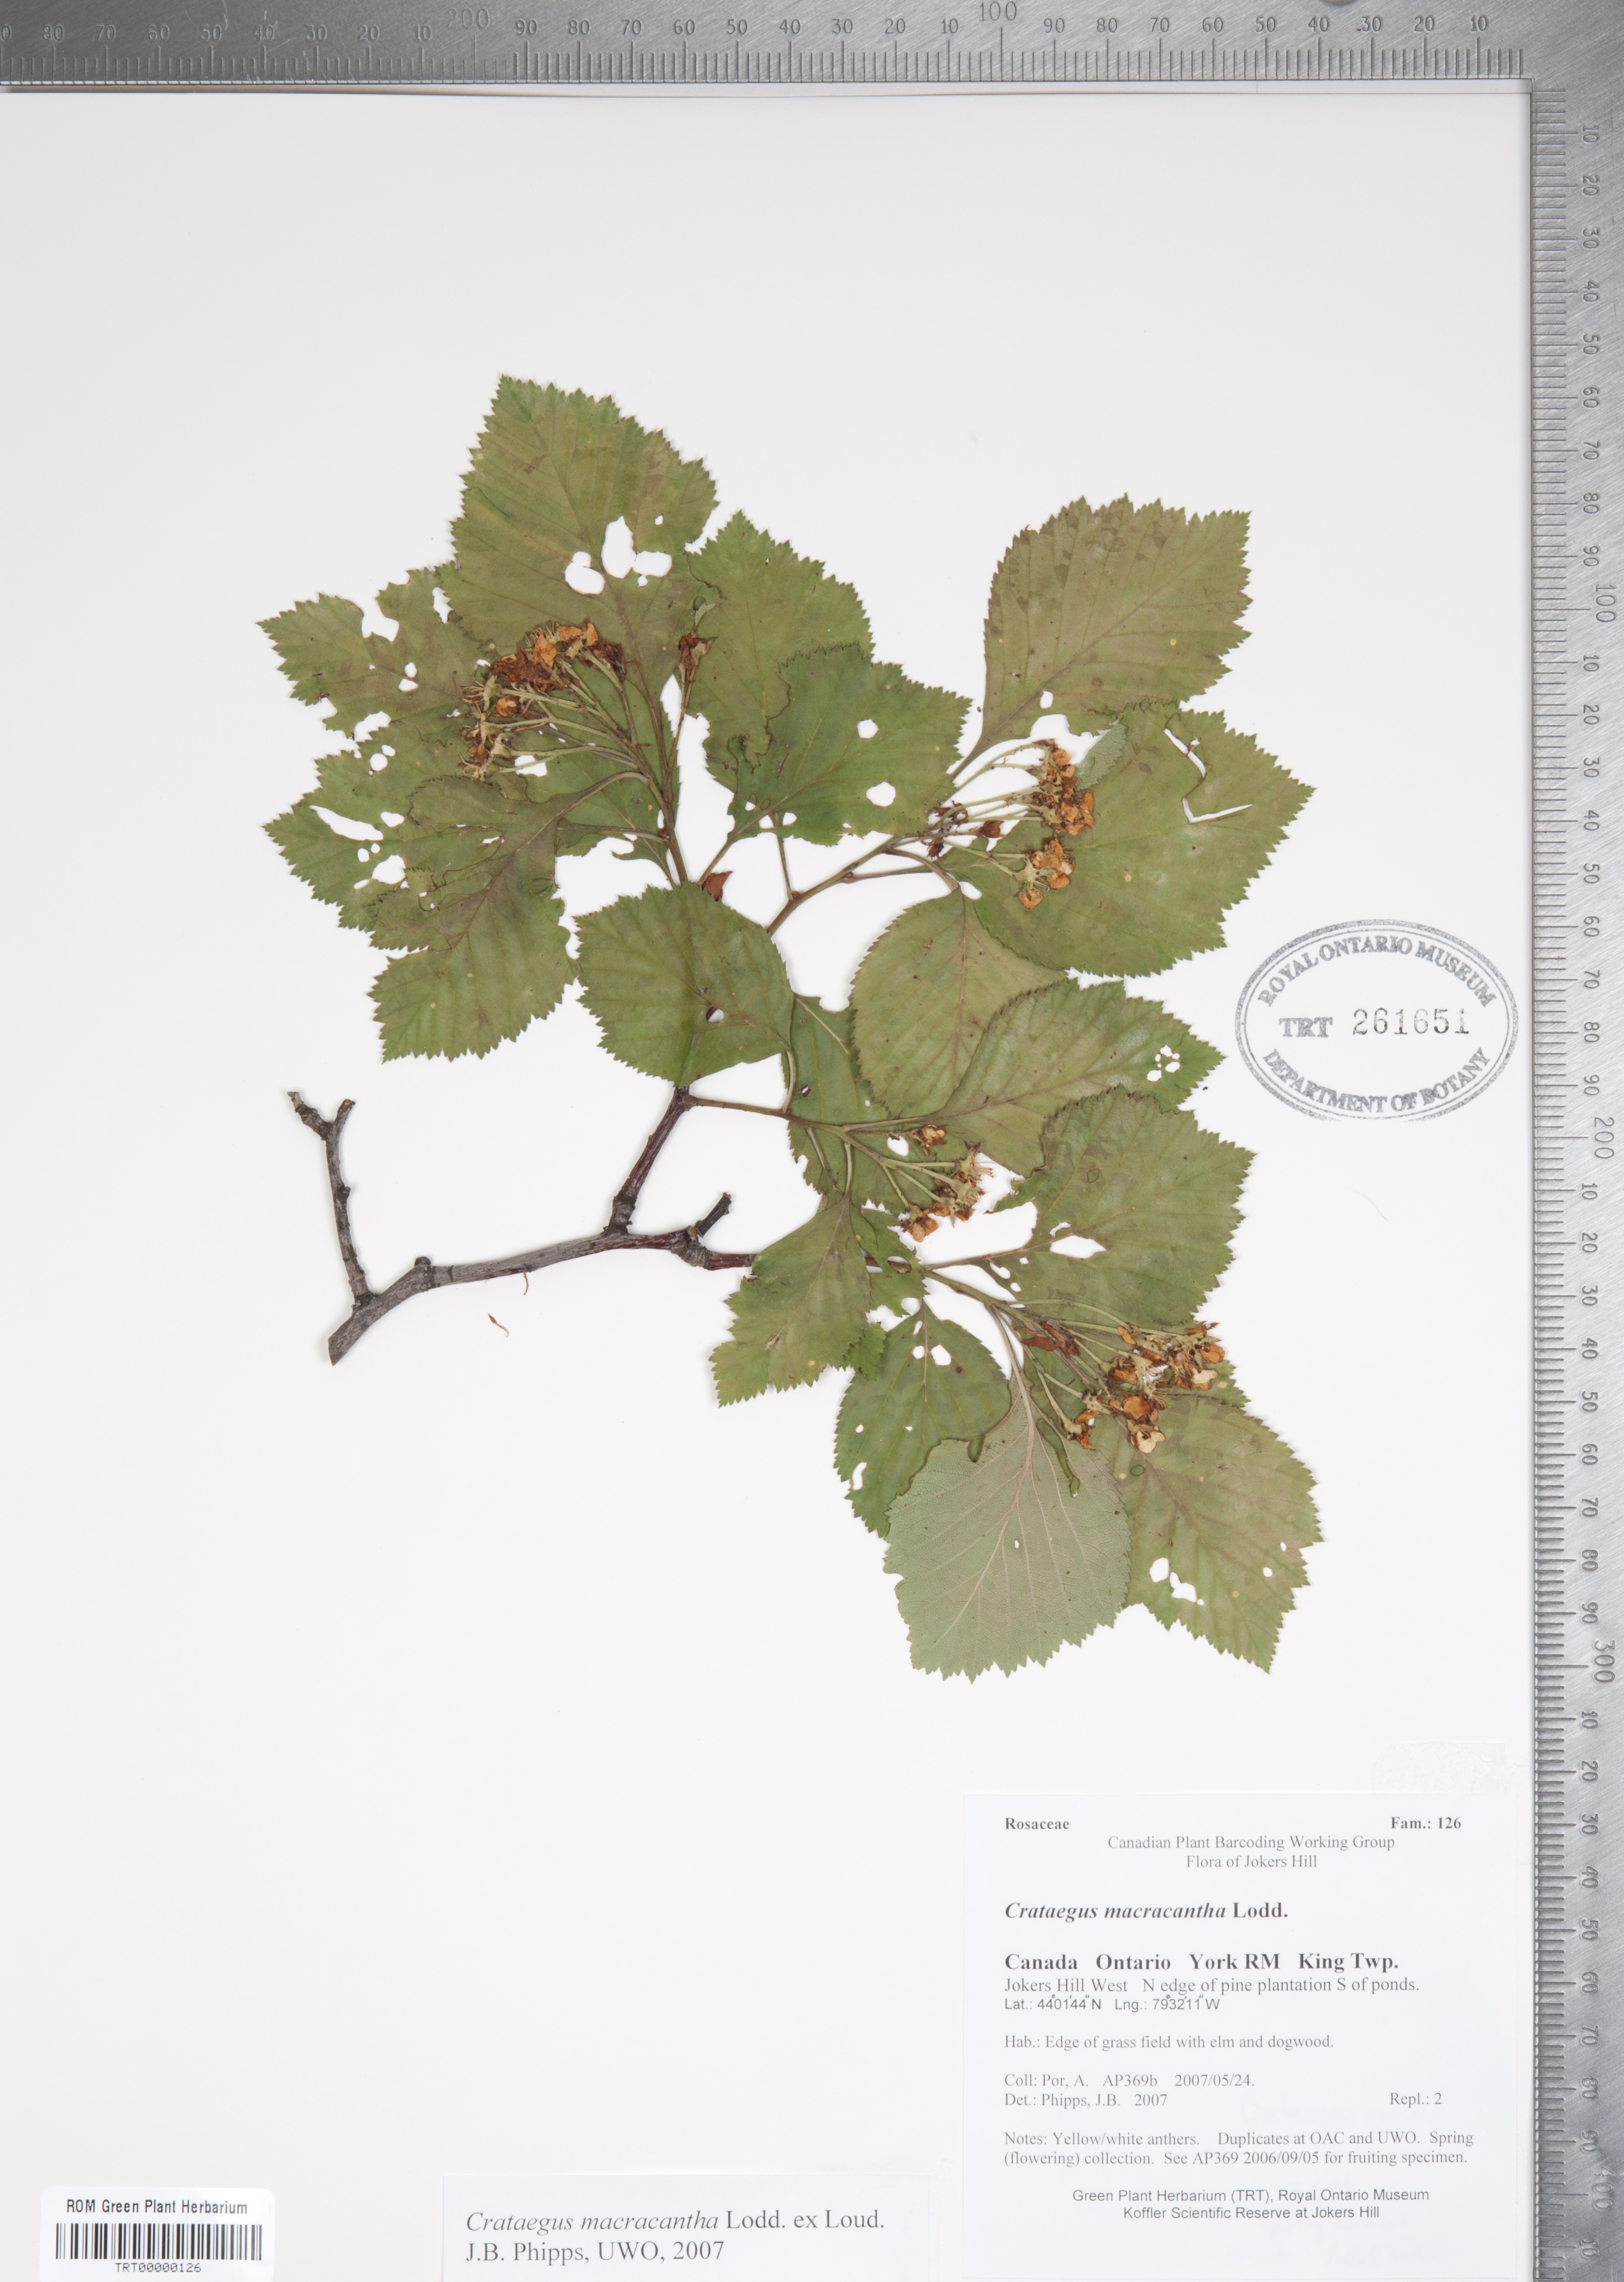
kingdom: Plantae
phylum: Tracheophyta
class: Magnoliopsida
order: Rosales
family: Rosaceae
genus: Crataegus
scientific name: Crataegus macracantha
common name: Large-thorn hawthorn
